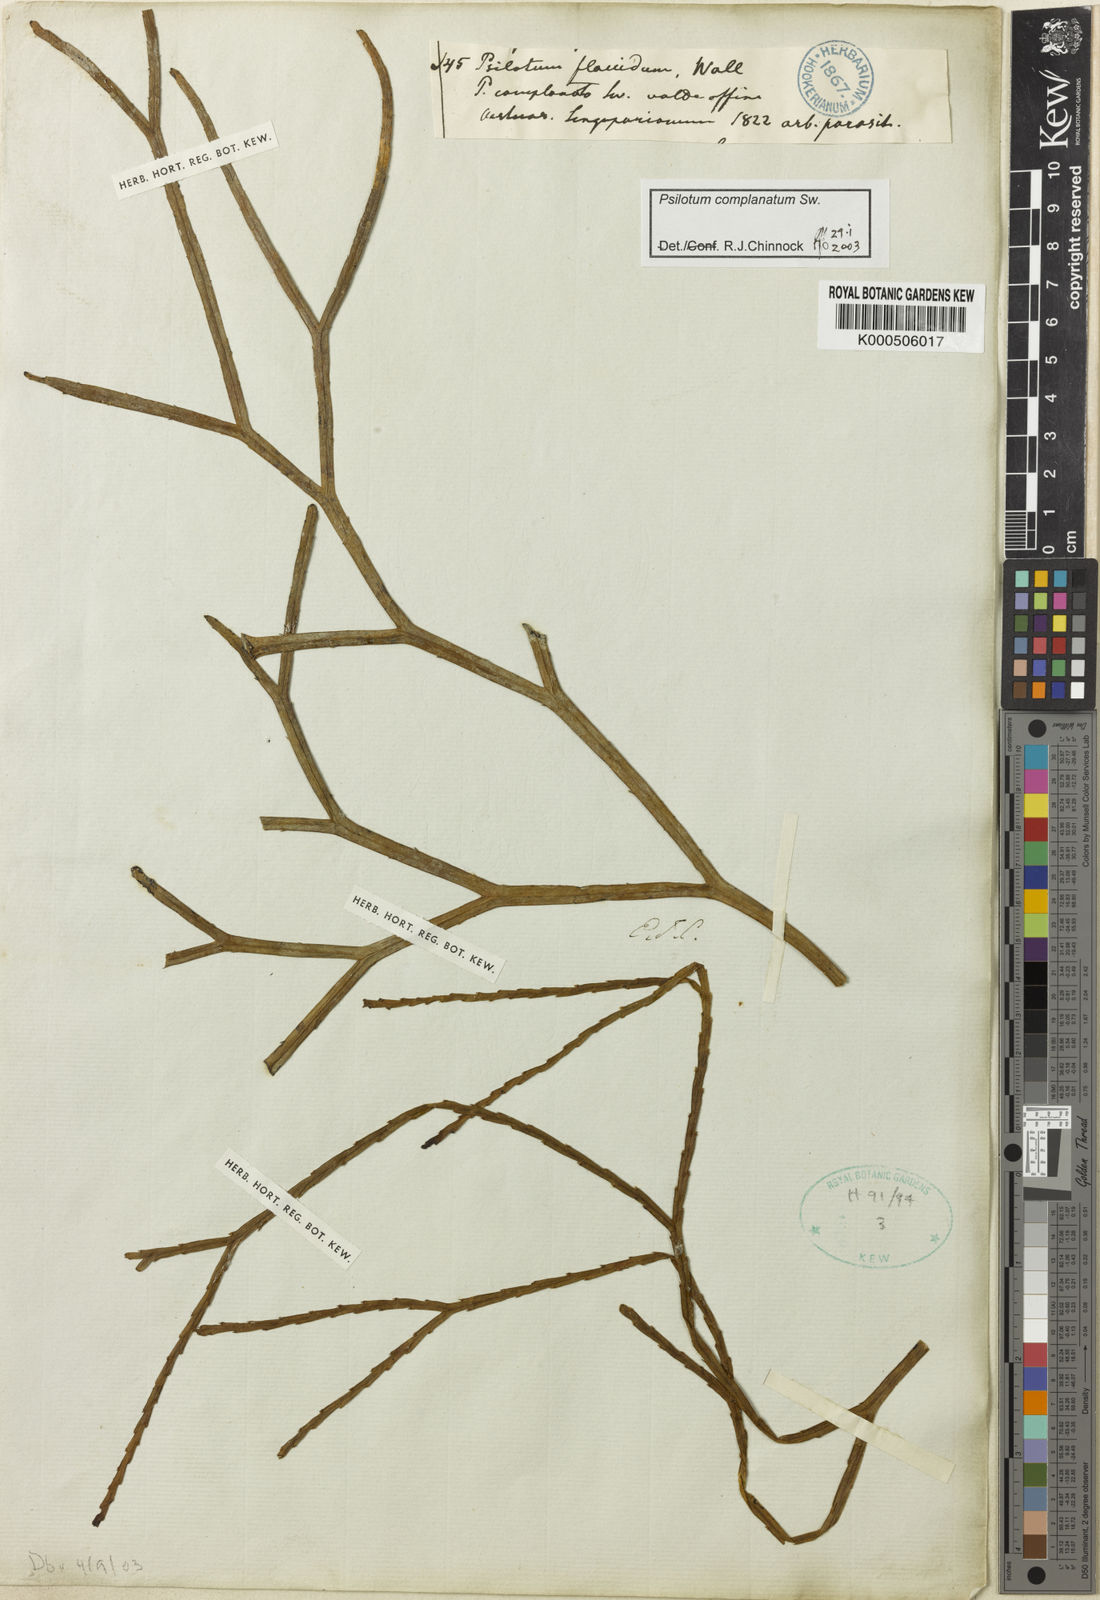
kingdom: Plantae
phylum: Tracheophyta
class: Polypodiopsida
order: Psilotales
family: Psilotaceae
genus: Psilotum
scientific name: Psilotum complanatum
